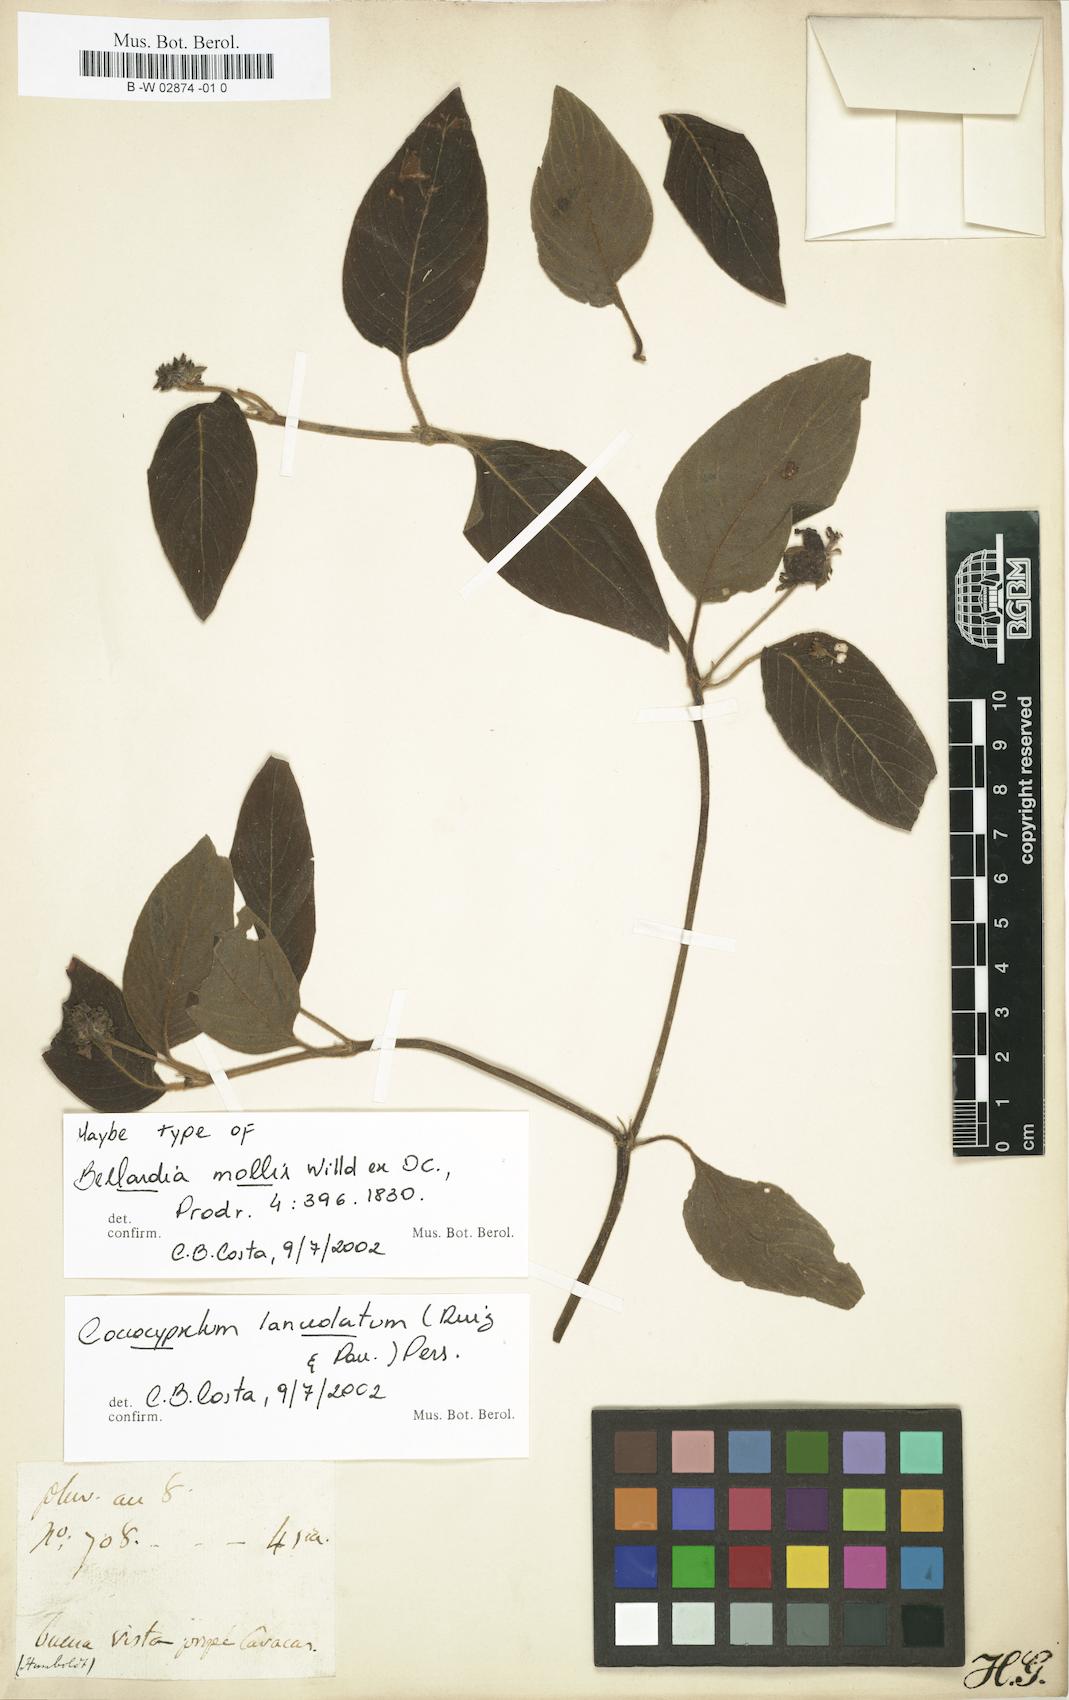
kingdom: Plantae
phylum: Tracheophyta
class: Magnoliopsida
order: Gentianales
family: Rubiaceae
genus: Coccocypselum
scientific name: Coccocypselum lanceolatum
